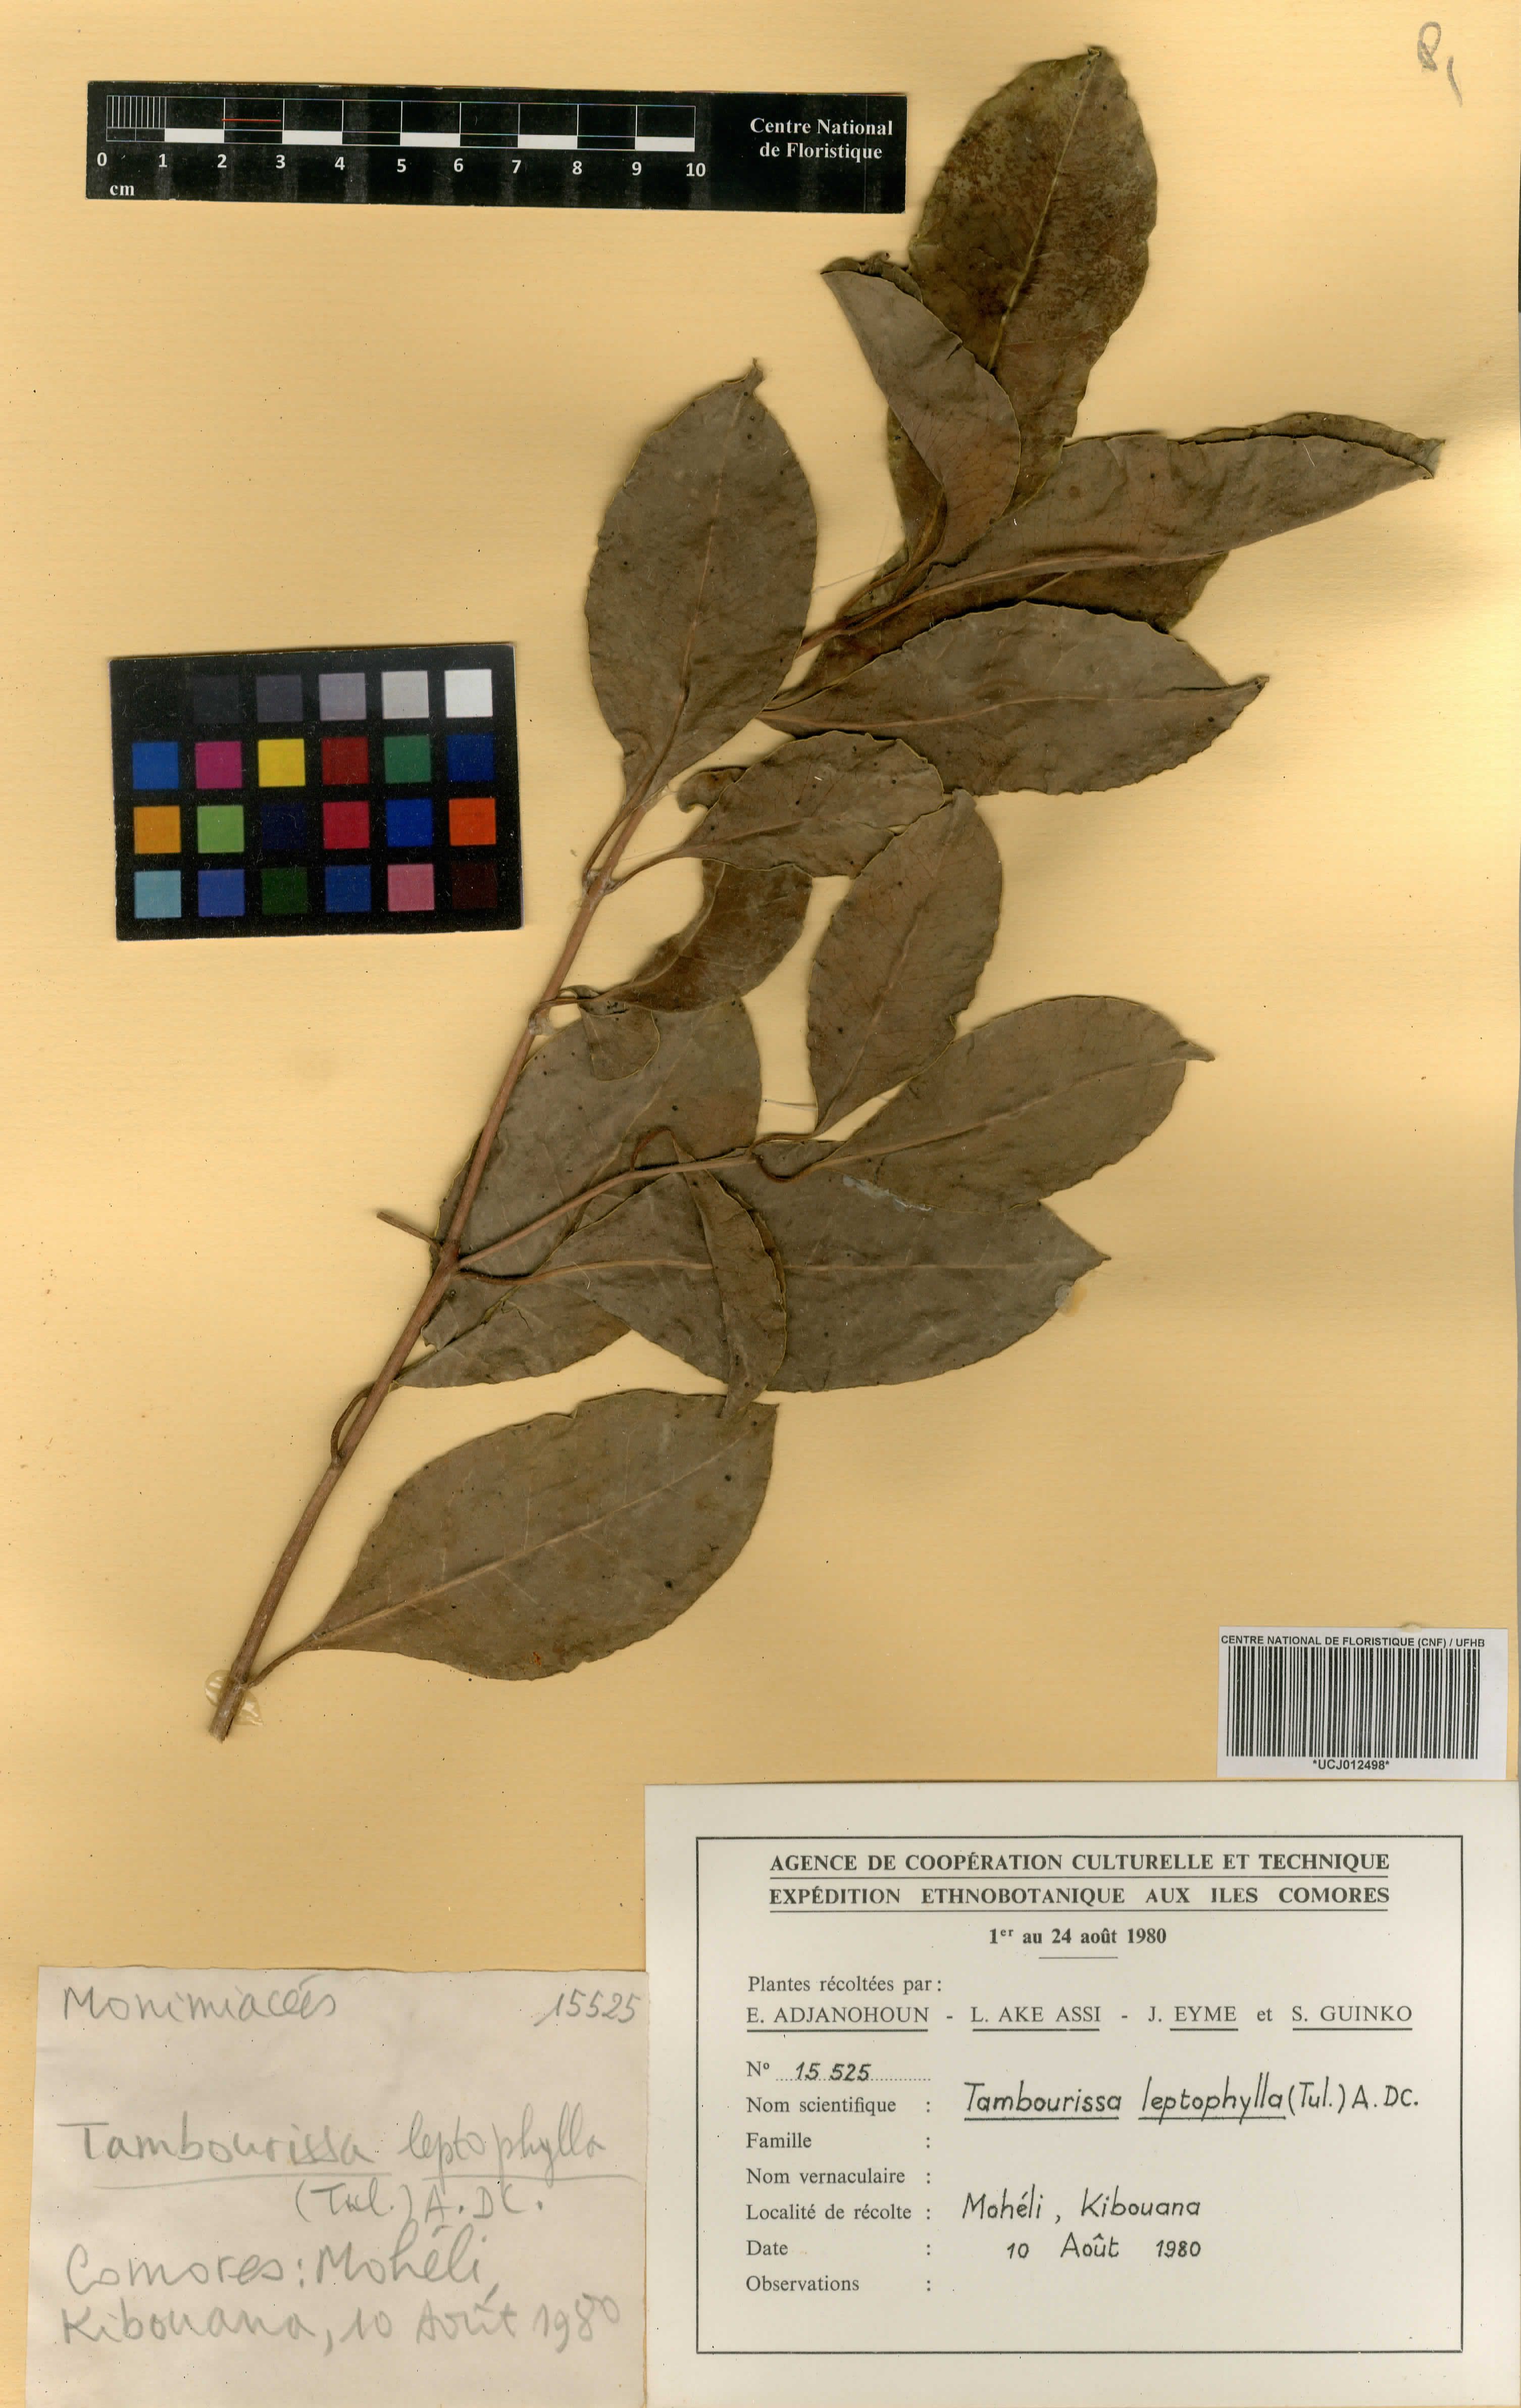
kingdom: Plantae
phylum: Tracheophyta
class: Magnoliopsida
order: Laurales
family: Monimiaceae
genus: Tambourissa
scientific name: Tambourissa leptophylla
